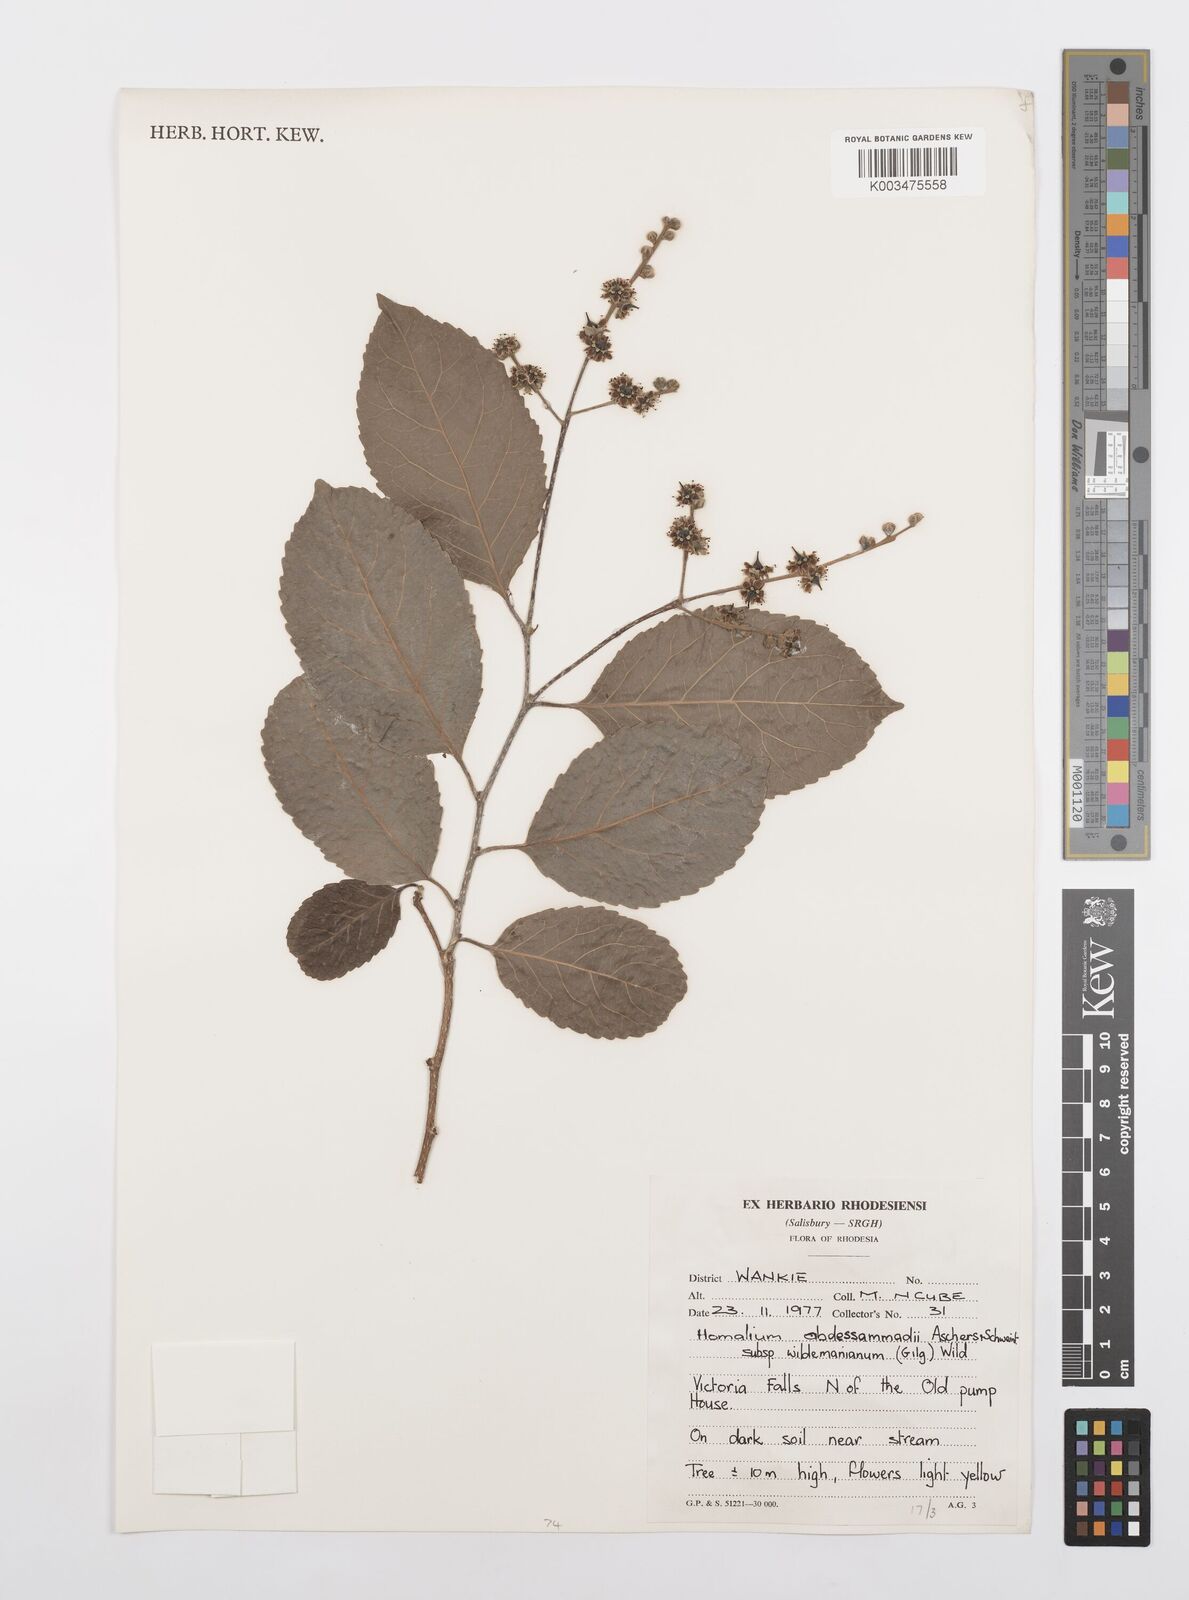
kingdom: Plantae
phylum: Tracheophyta
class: Magnoliopsida
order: Malpighiales
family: Salicaceae
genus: Homalium
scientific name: Homalium abdessammadii
